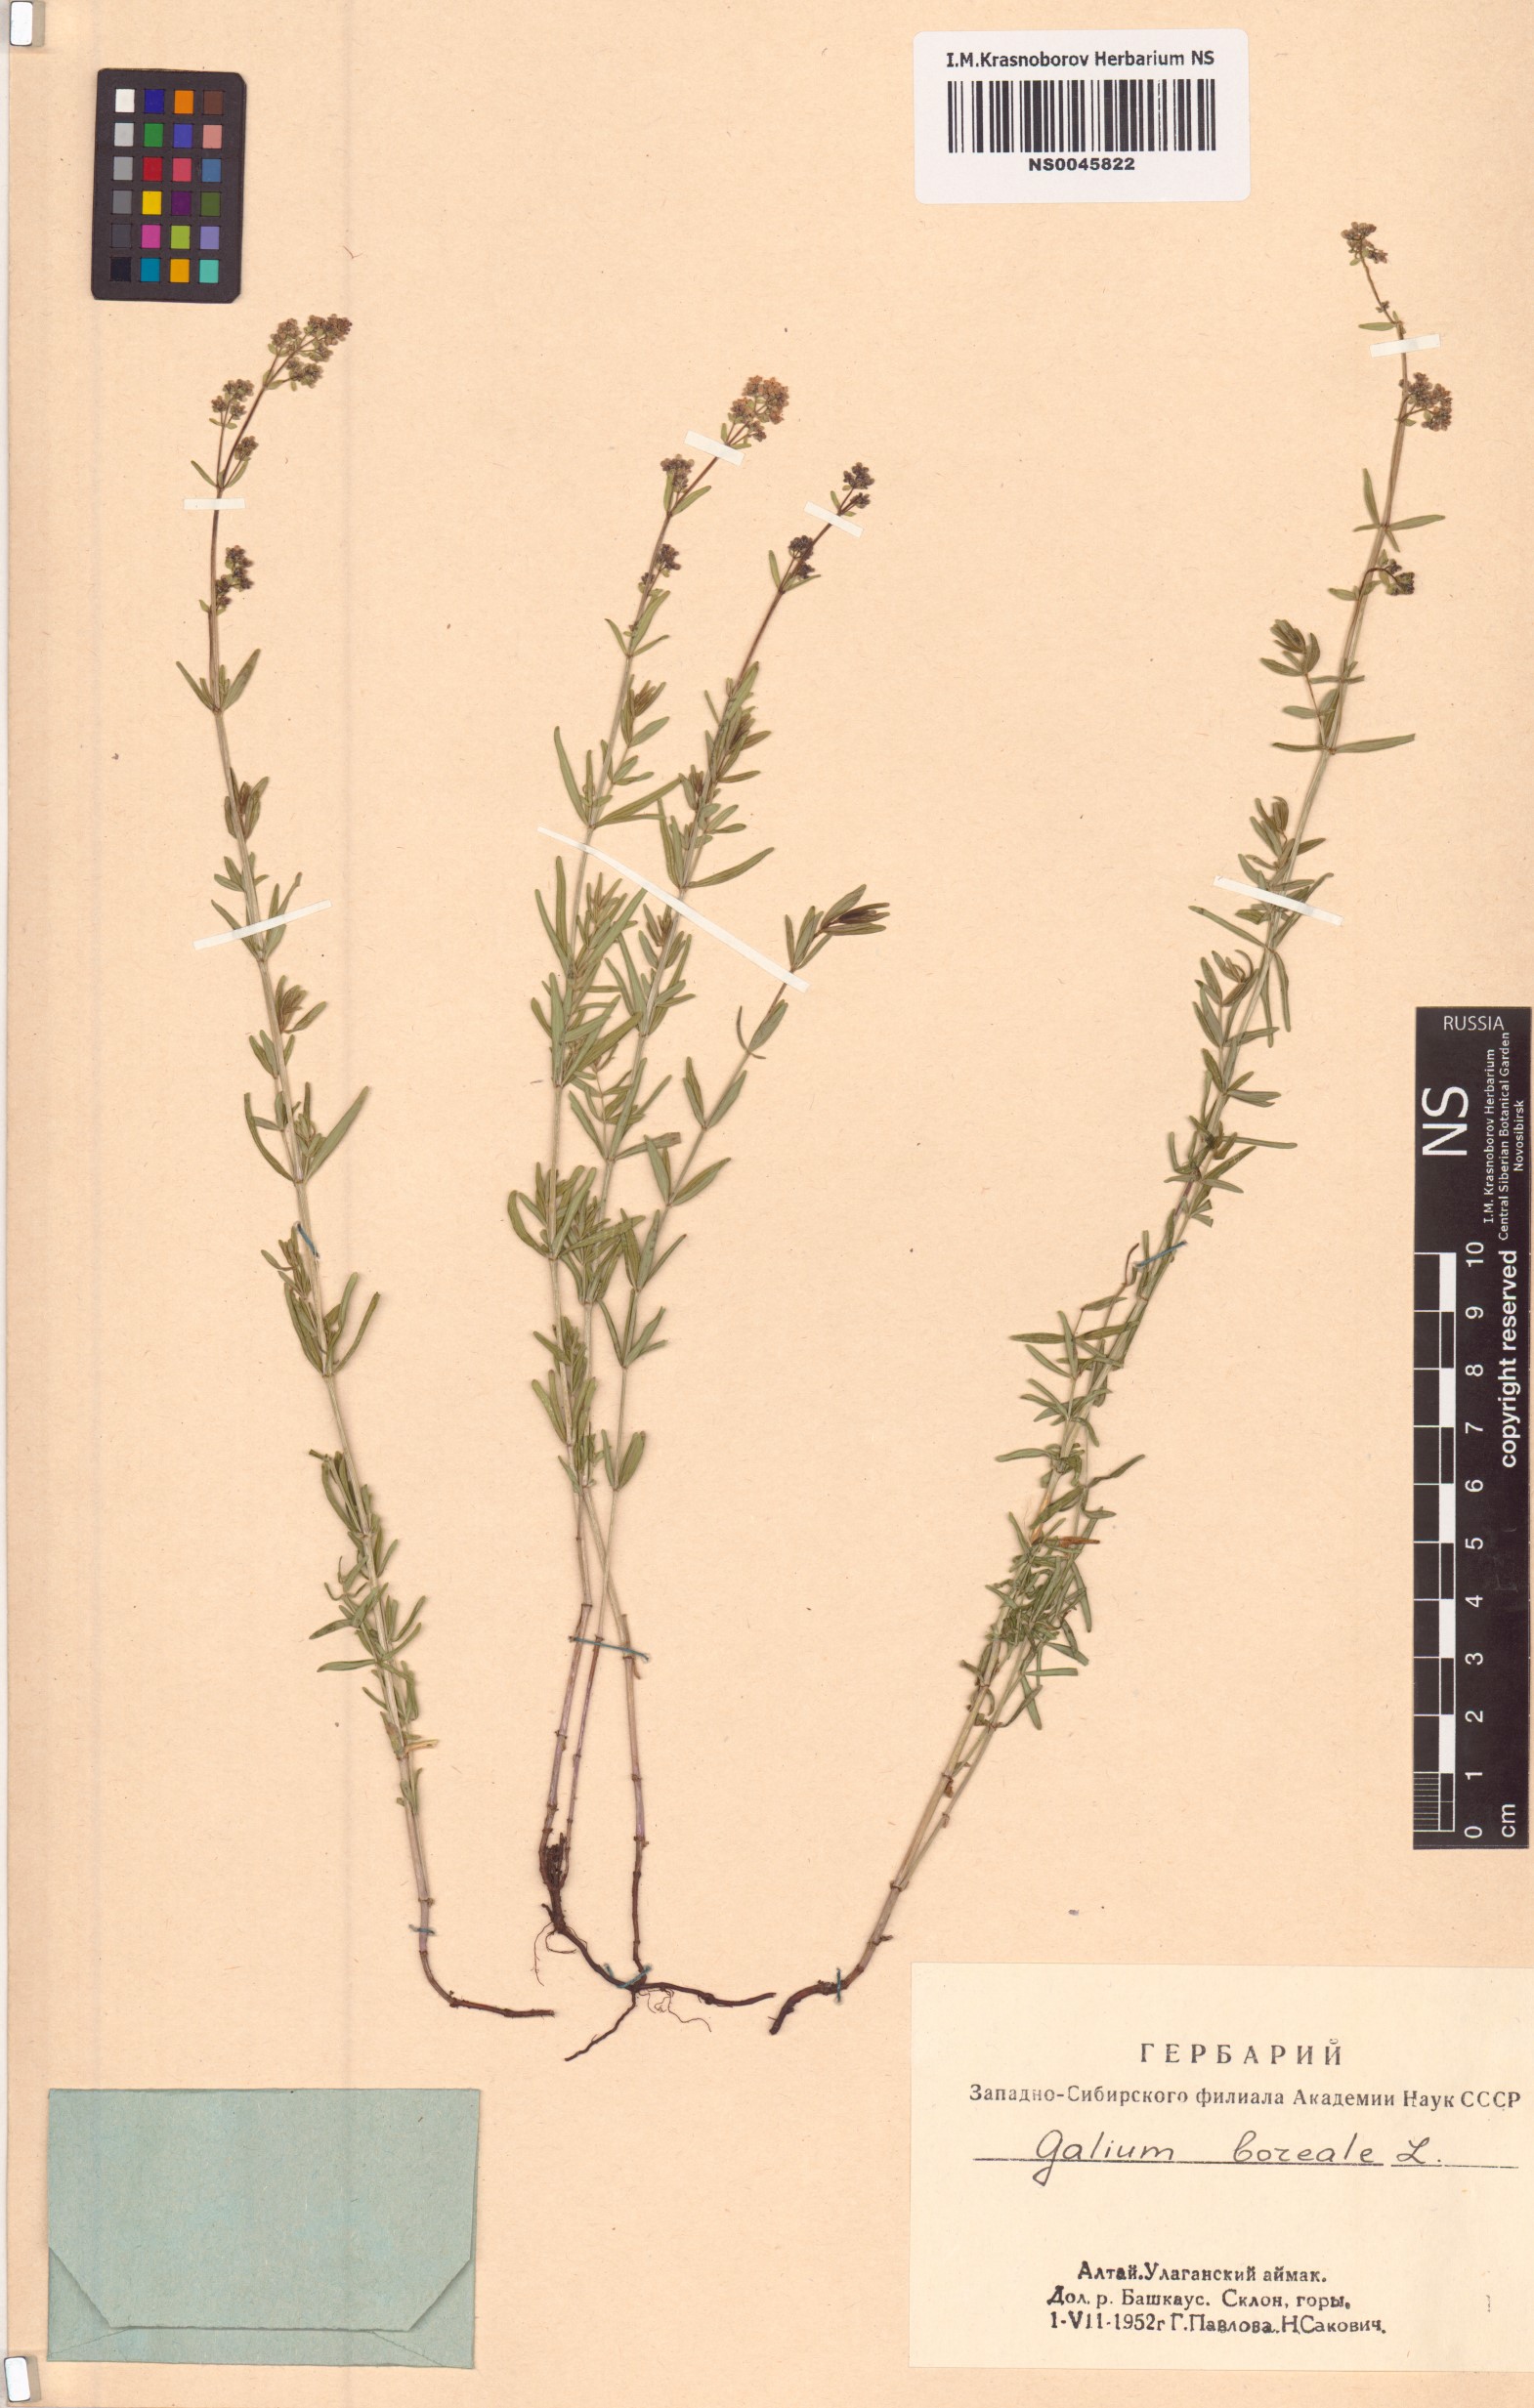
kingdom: Plantae
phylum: Tracheophyta
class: Magnoliopsida
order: Gentianales
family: Rubiaceae
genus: Galium
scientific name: Galium boreale
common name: Northern bedstraw
